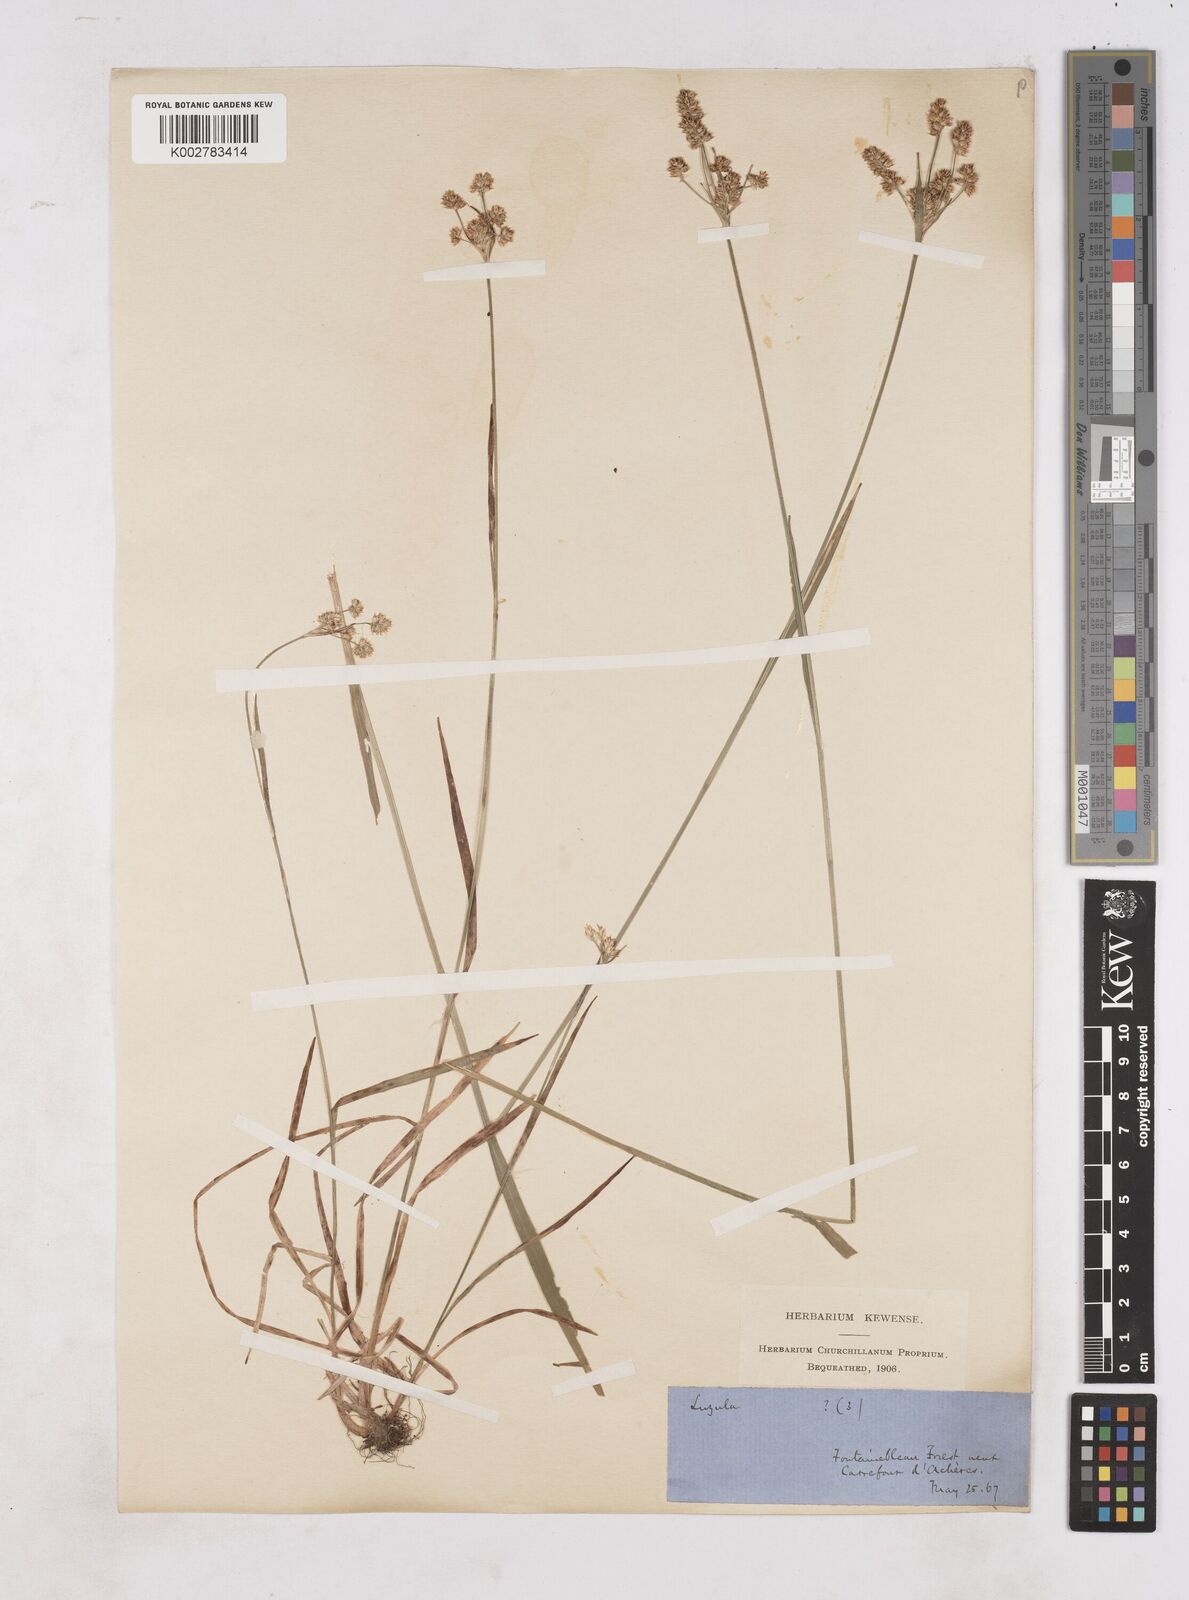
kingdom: Plantae
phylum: Tracheophyta
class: Liliopsida
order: Poales
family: Juncaceae
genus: Luzula
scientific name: Luzula multiflora
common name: Heath wood-rush
